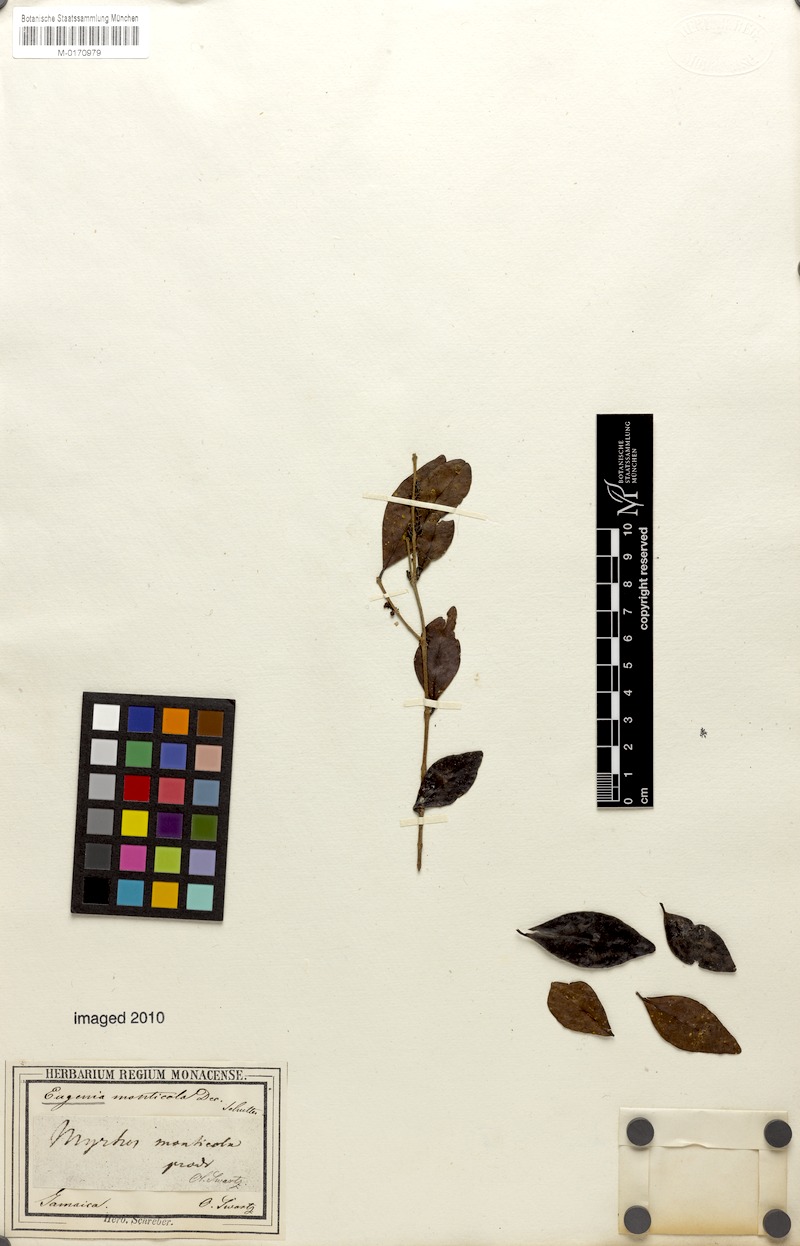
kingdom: Plantae
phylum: Tracheophyta
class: Magnoliopsida
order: Myrtales
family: Myrtaceae
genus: Eugenia
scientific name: Eugenia monticola
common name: Birds berry
